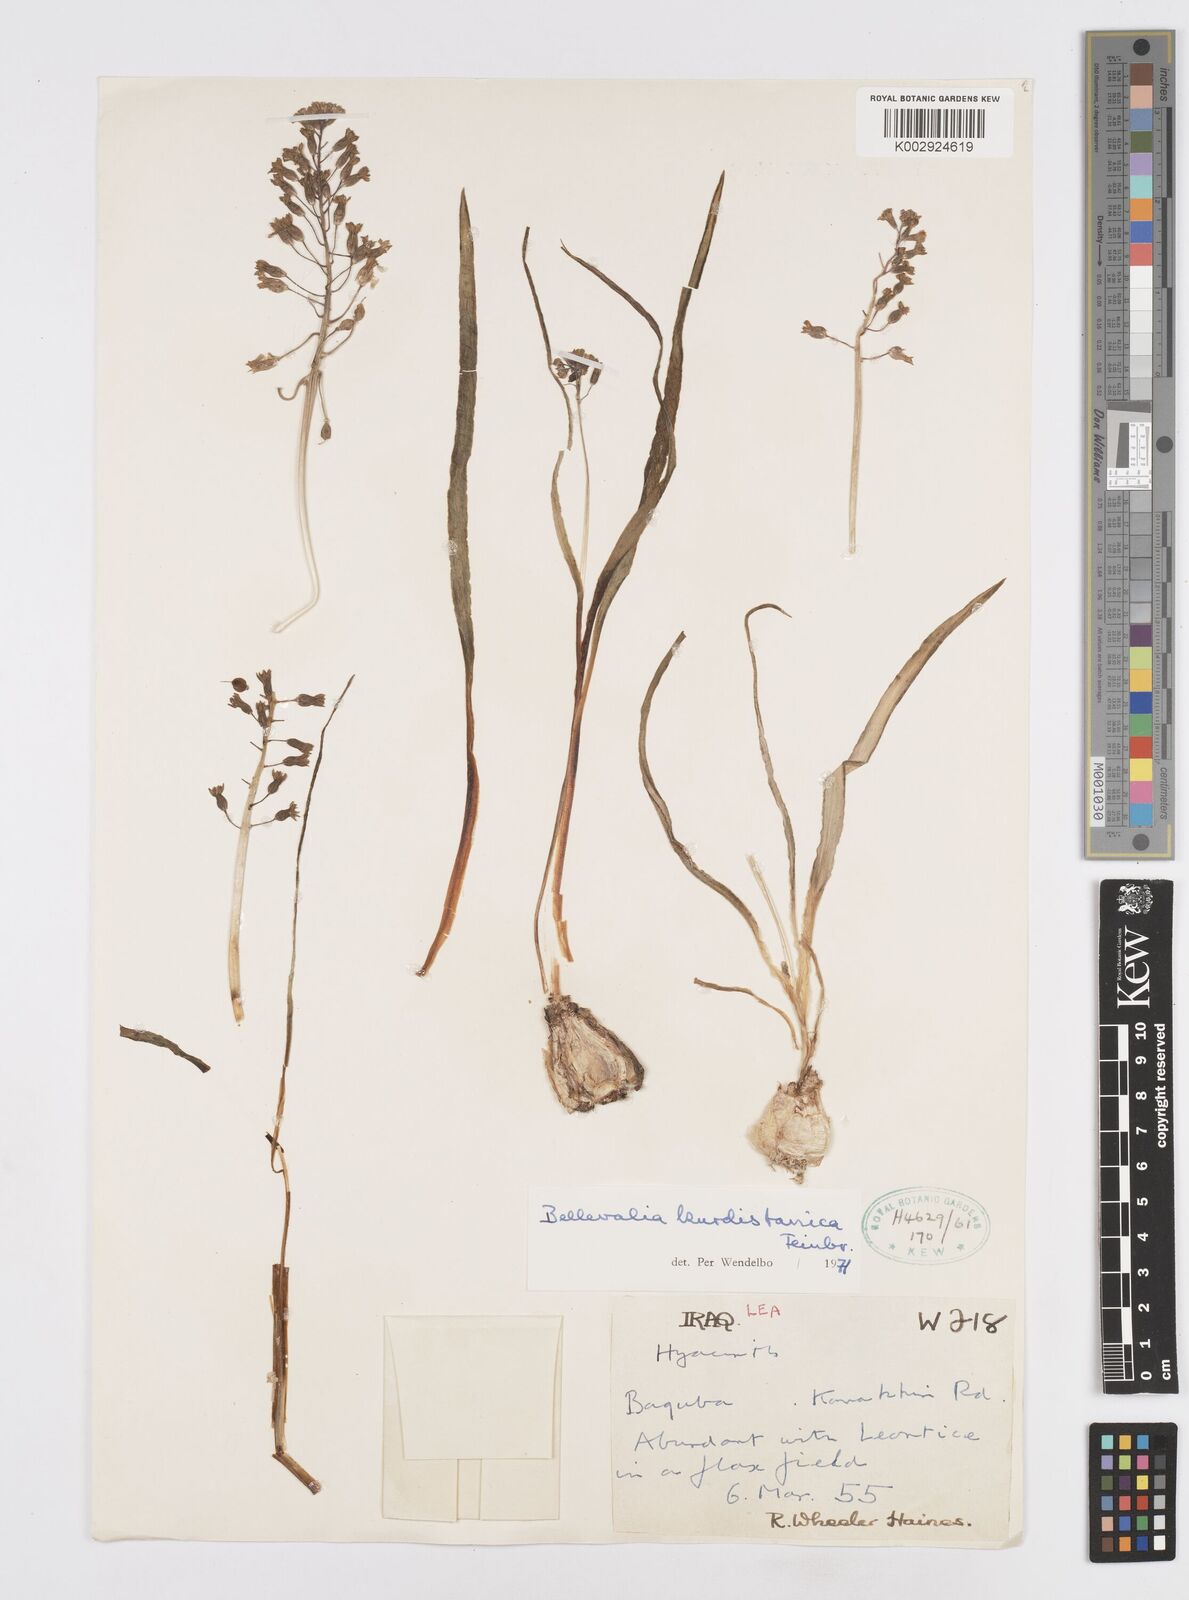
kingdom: Plantae
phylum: Tracheophyta
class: Liliopsida
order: Asparagales
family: Asparagaceae
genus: Bellevalia
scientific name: Bellevalia kurdistanica
